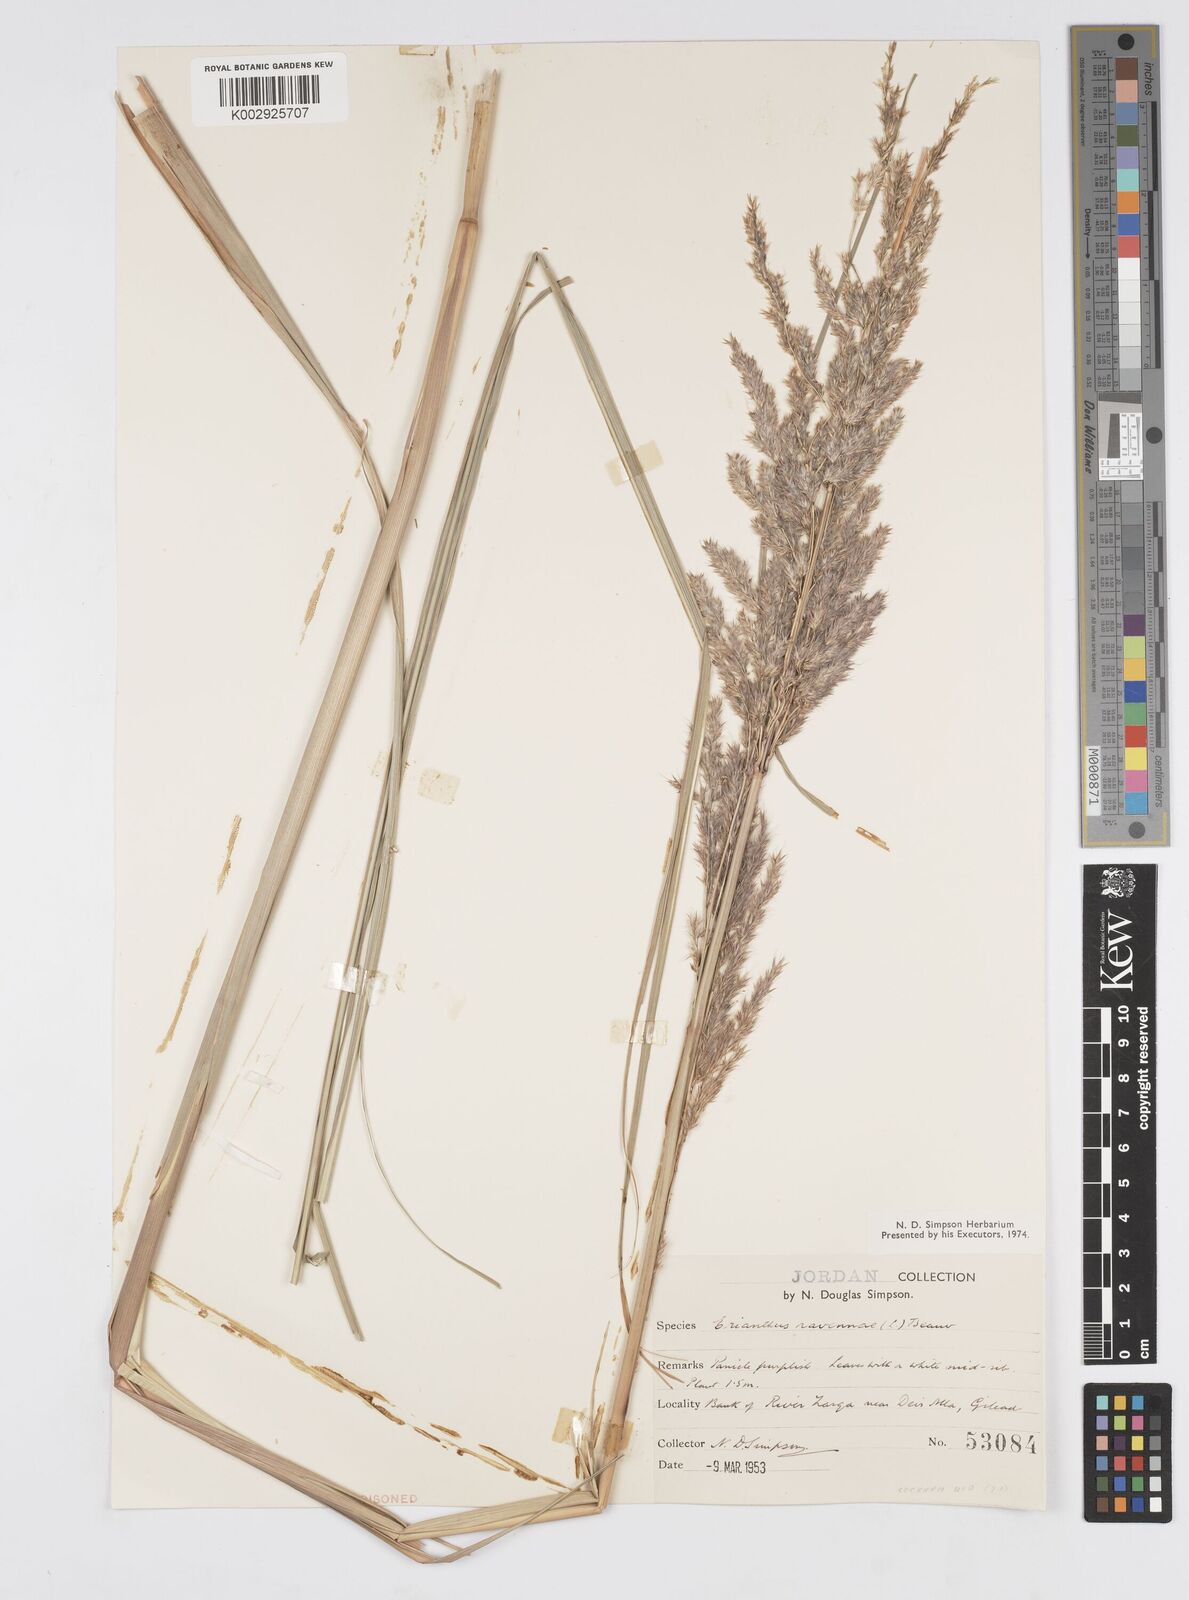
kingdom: Plantae
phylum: Tracheophyta
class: Liliopsida
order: Poales
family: Poaceae
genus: Tripidium
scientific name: Tripidium ravennae
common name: Ravenna grass
